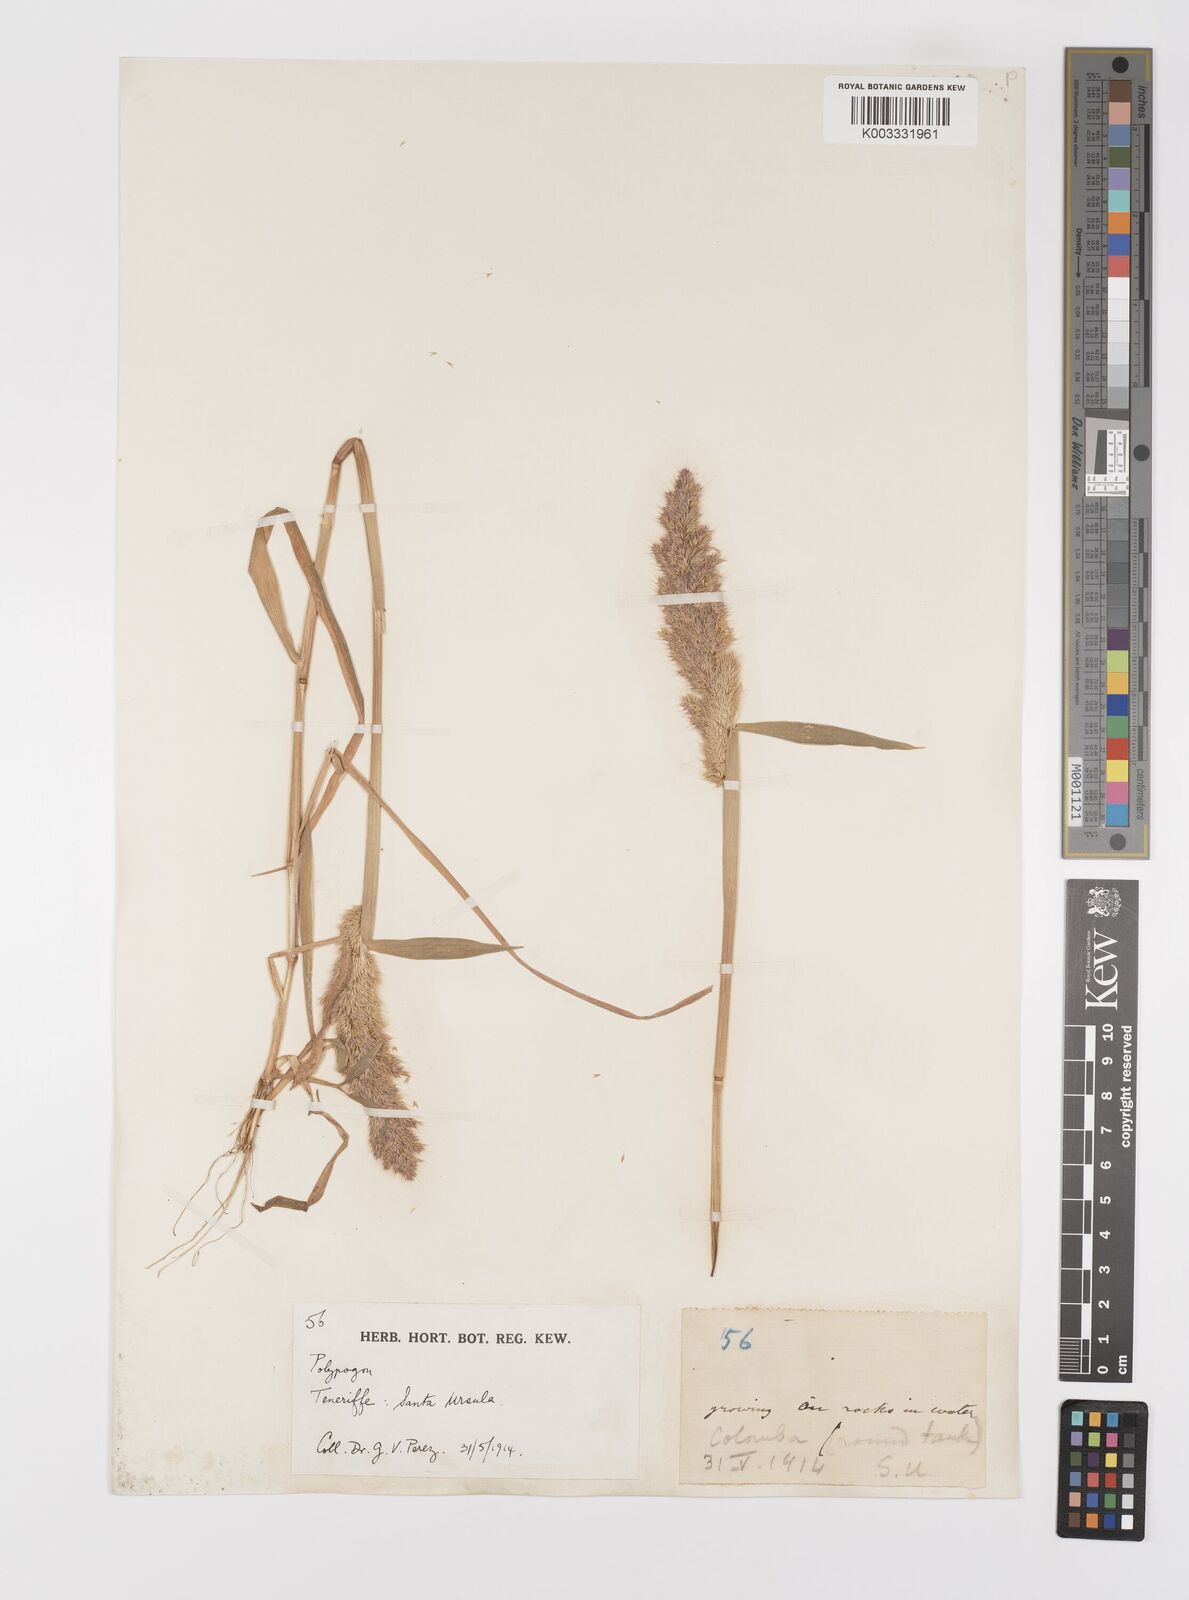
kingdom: Plantae
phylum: Tracheophyta
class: Liliopsida
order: Poales
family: Poaceae
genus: Polypogon
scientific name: Polypogon fugax
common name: Asia minor bluegrass
